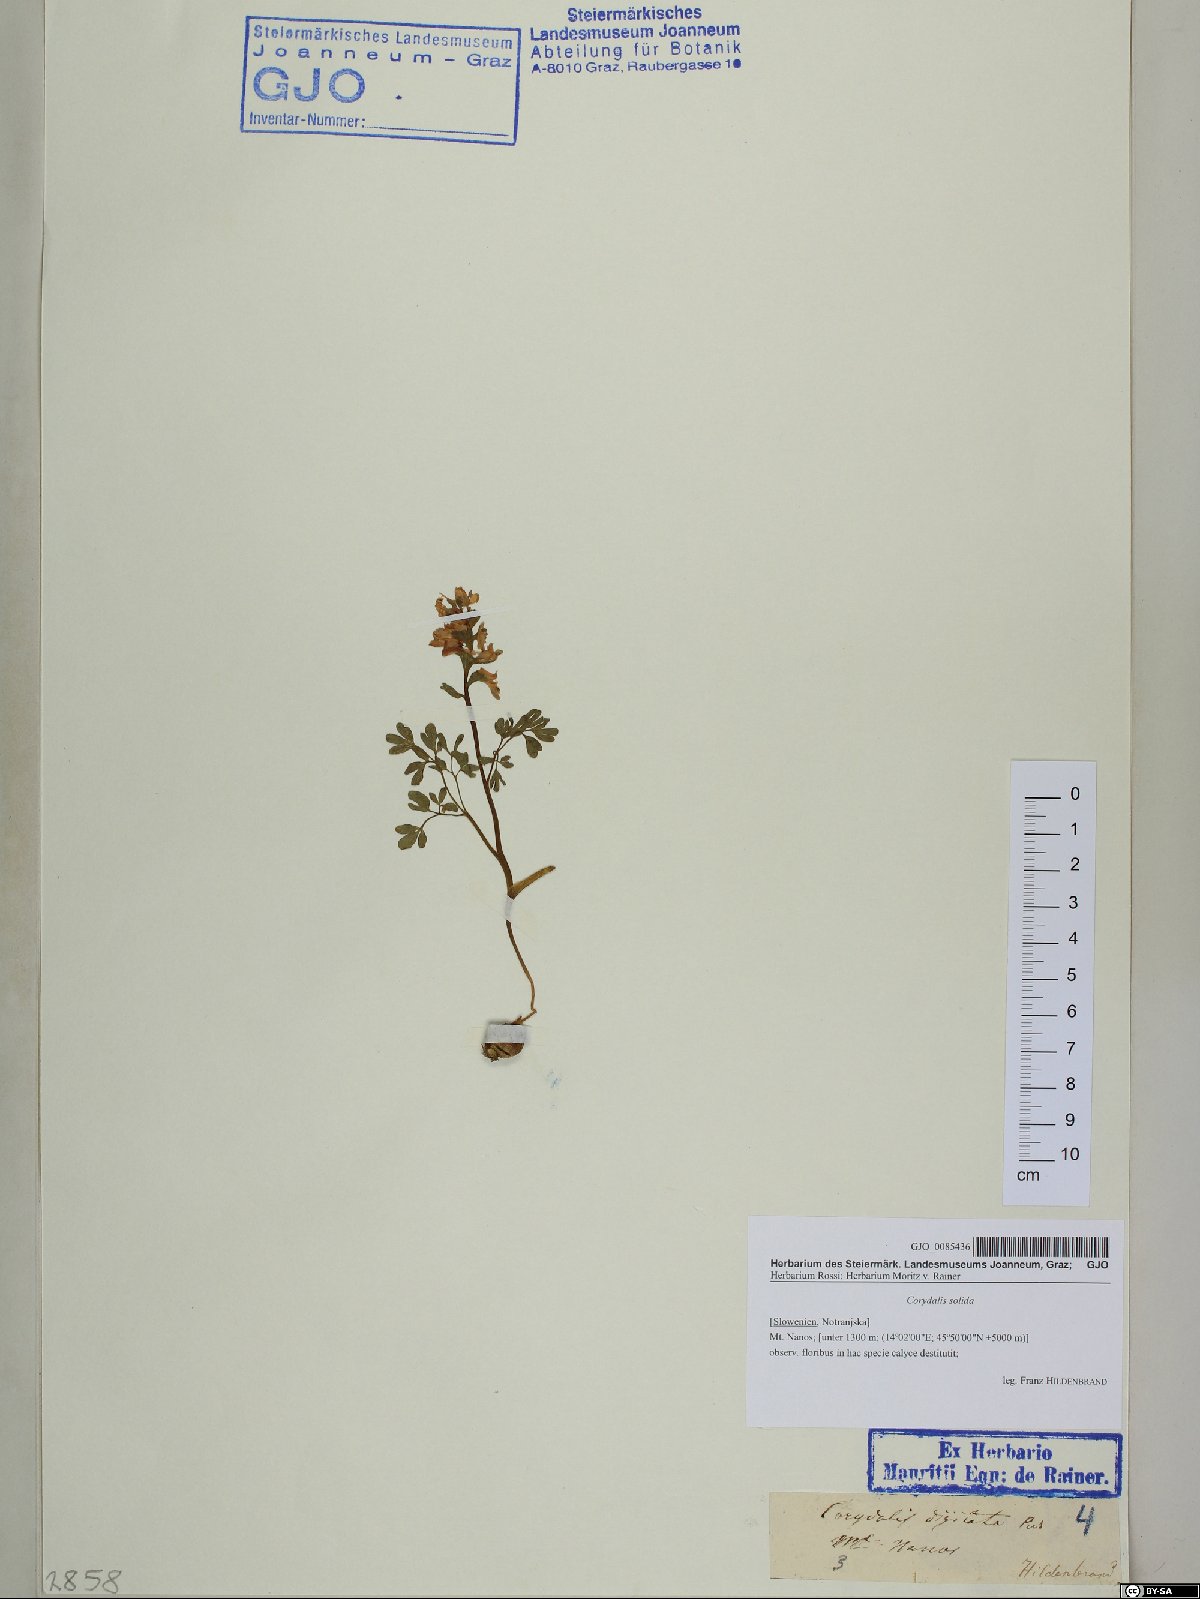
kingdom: Plantae
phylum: Tracheophyta
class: Magnoliopsida
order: Ranunculales
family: Papaveraceae
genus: Corydalis
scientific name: Corydalis solida
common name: Bird-in-a-bush
